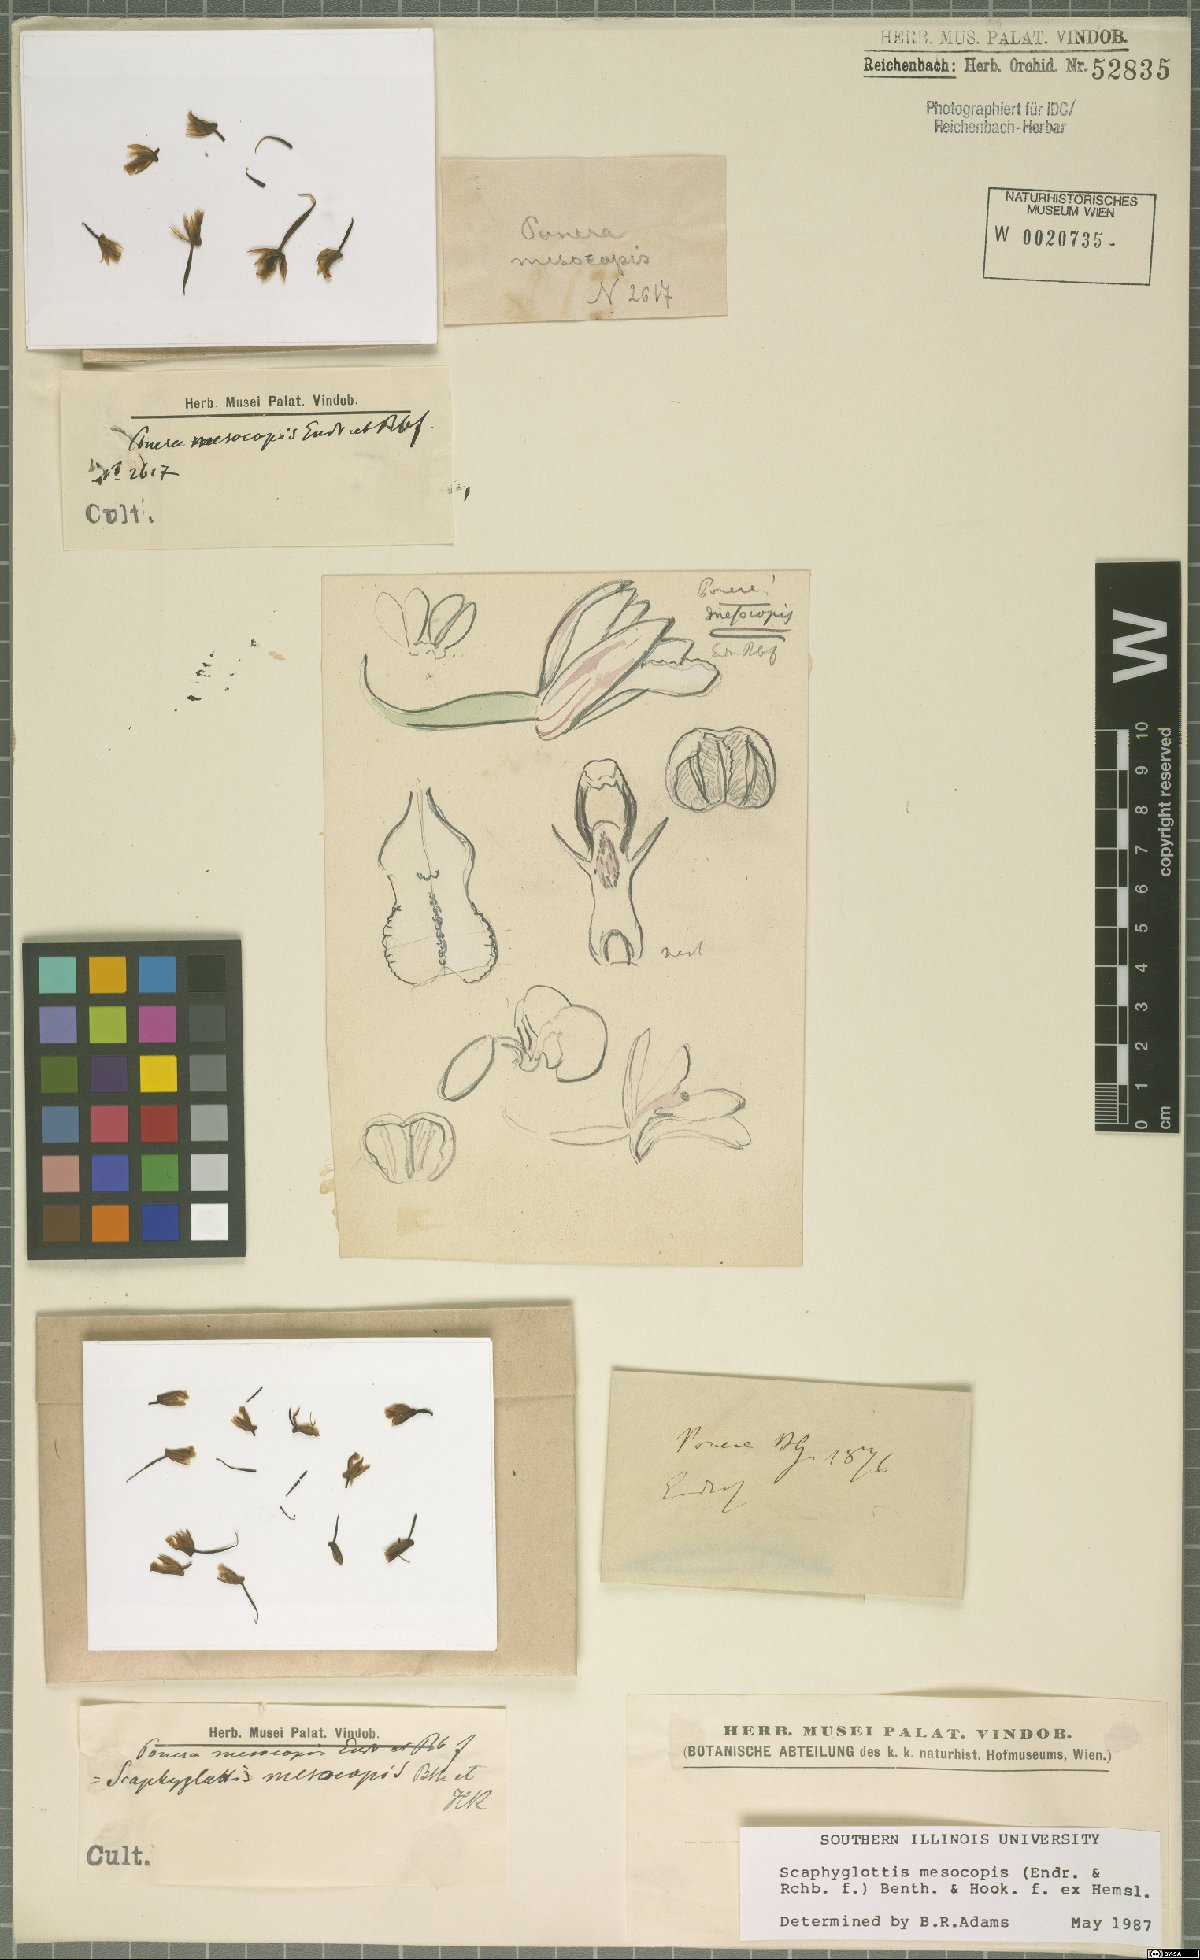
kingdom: Plantae
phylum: Tracheophyta
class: Liliopsida
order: Asparagales
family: Orchidaceae
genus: Scaphyglottis
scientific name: Scaphyglottis mesocopis
